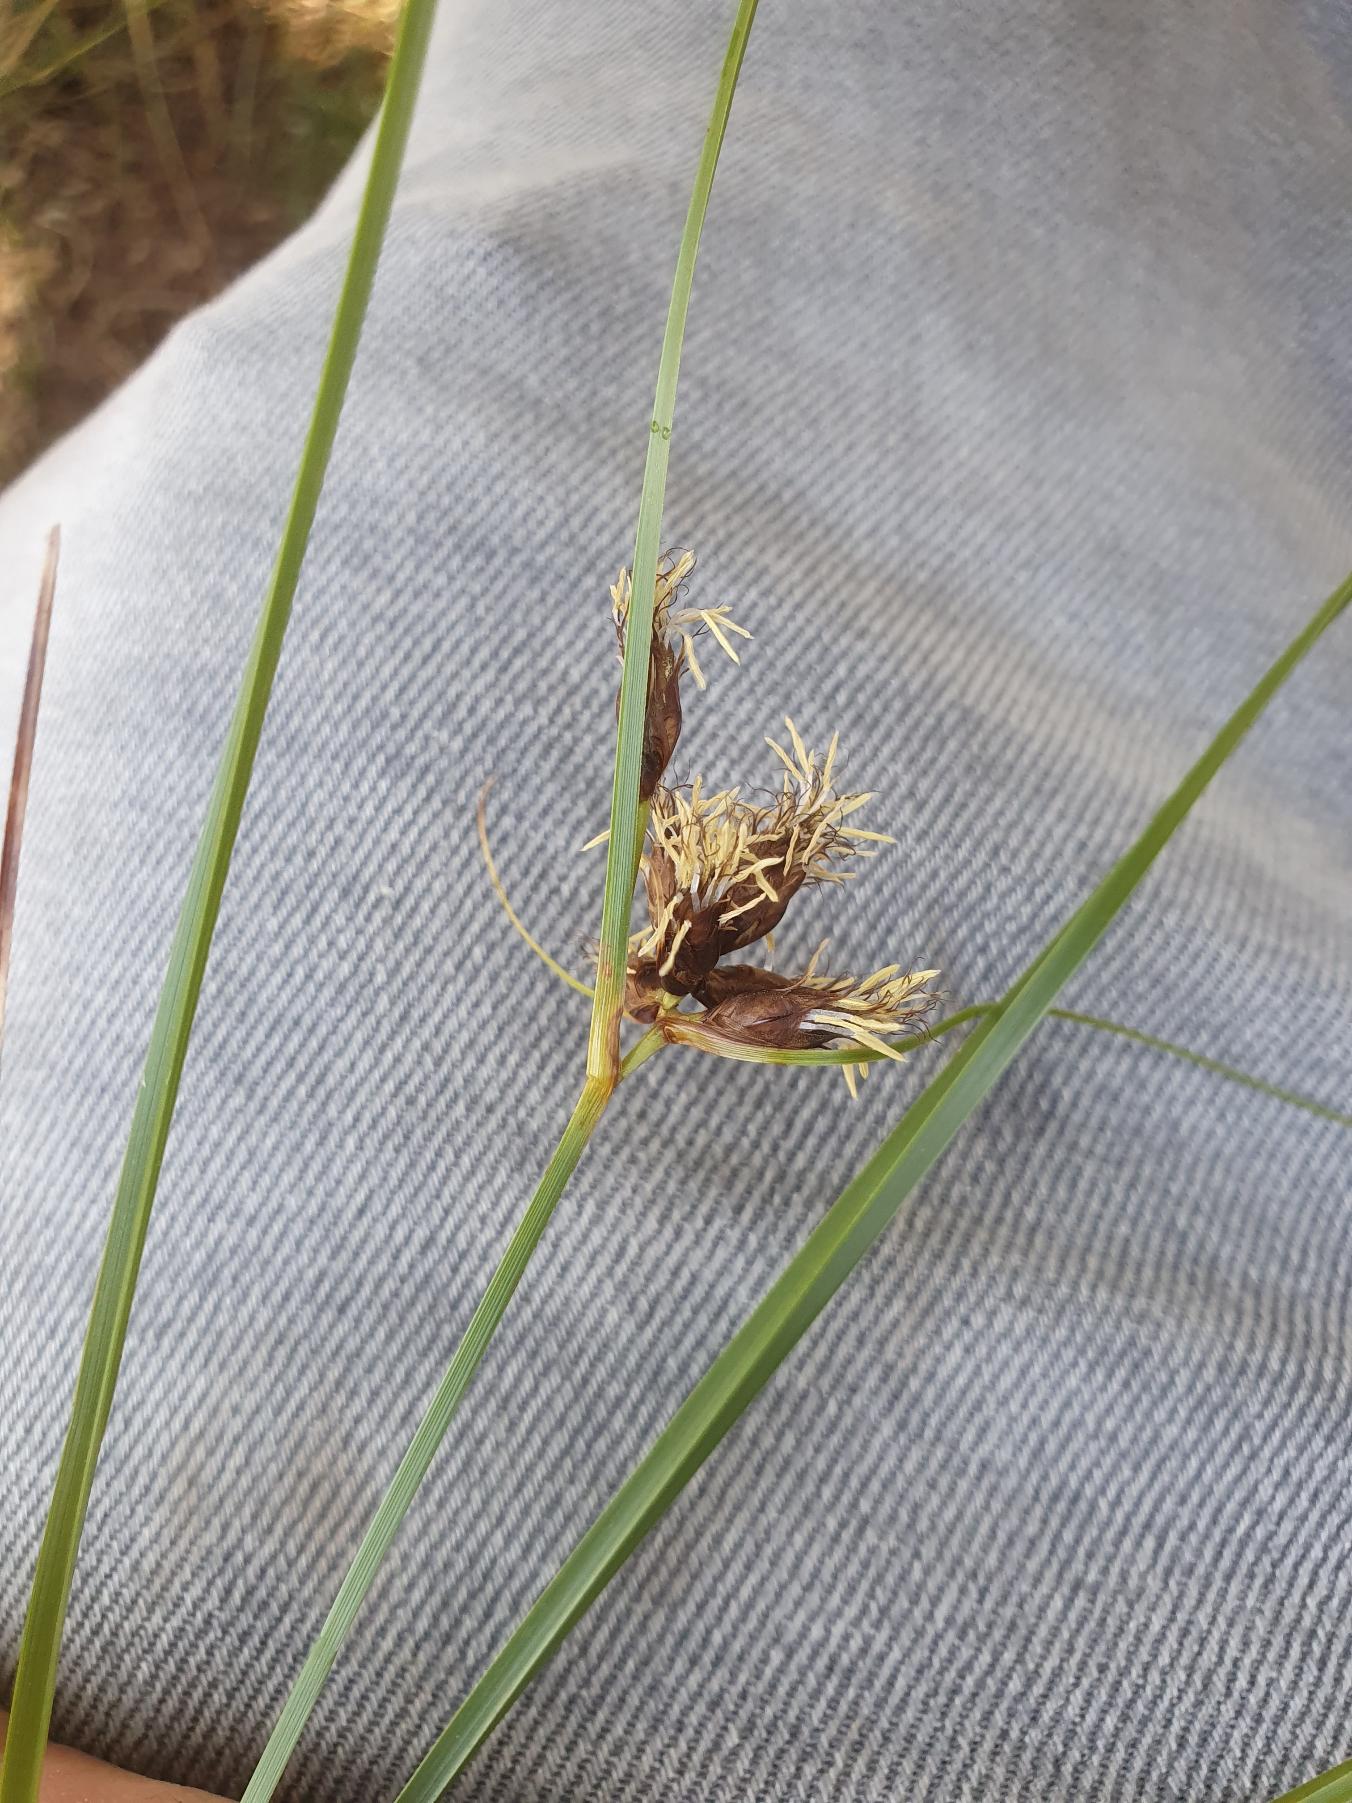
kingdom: Plantae
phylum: Tracheophyta
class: Liliopsida
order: Poales
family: Cyperaceae
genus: Bolboschoenus
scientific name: Bolboschoenus maritimus
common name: Strand-kogleaks
